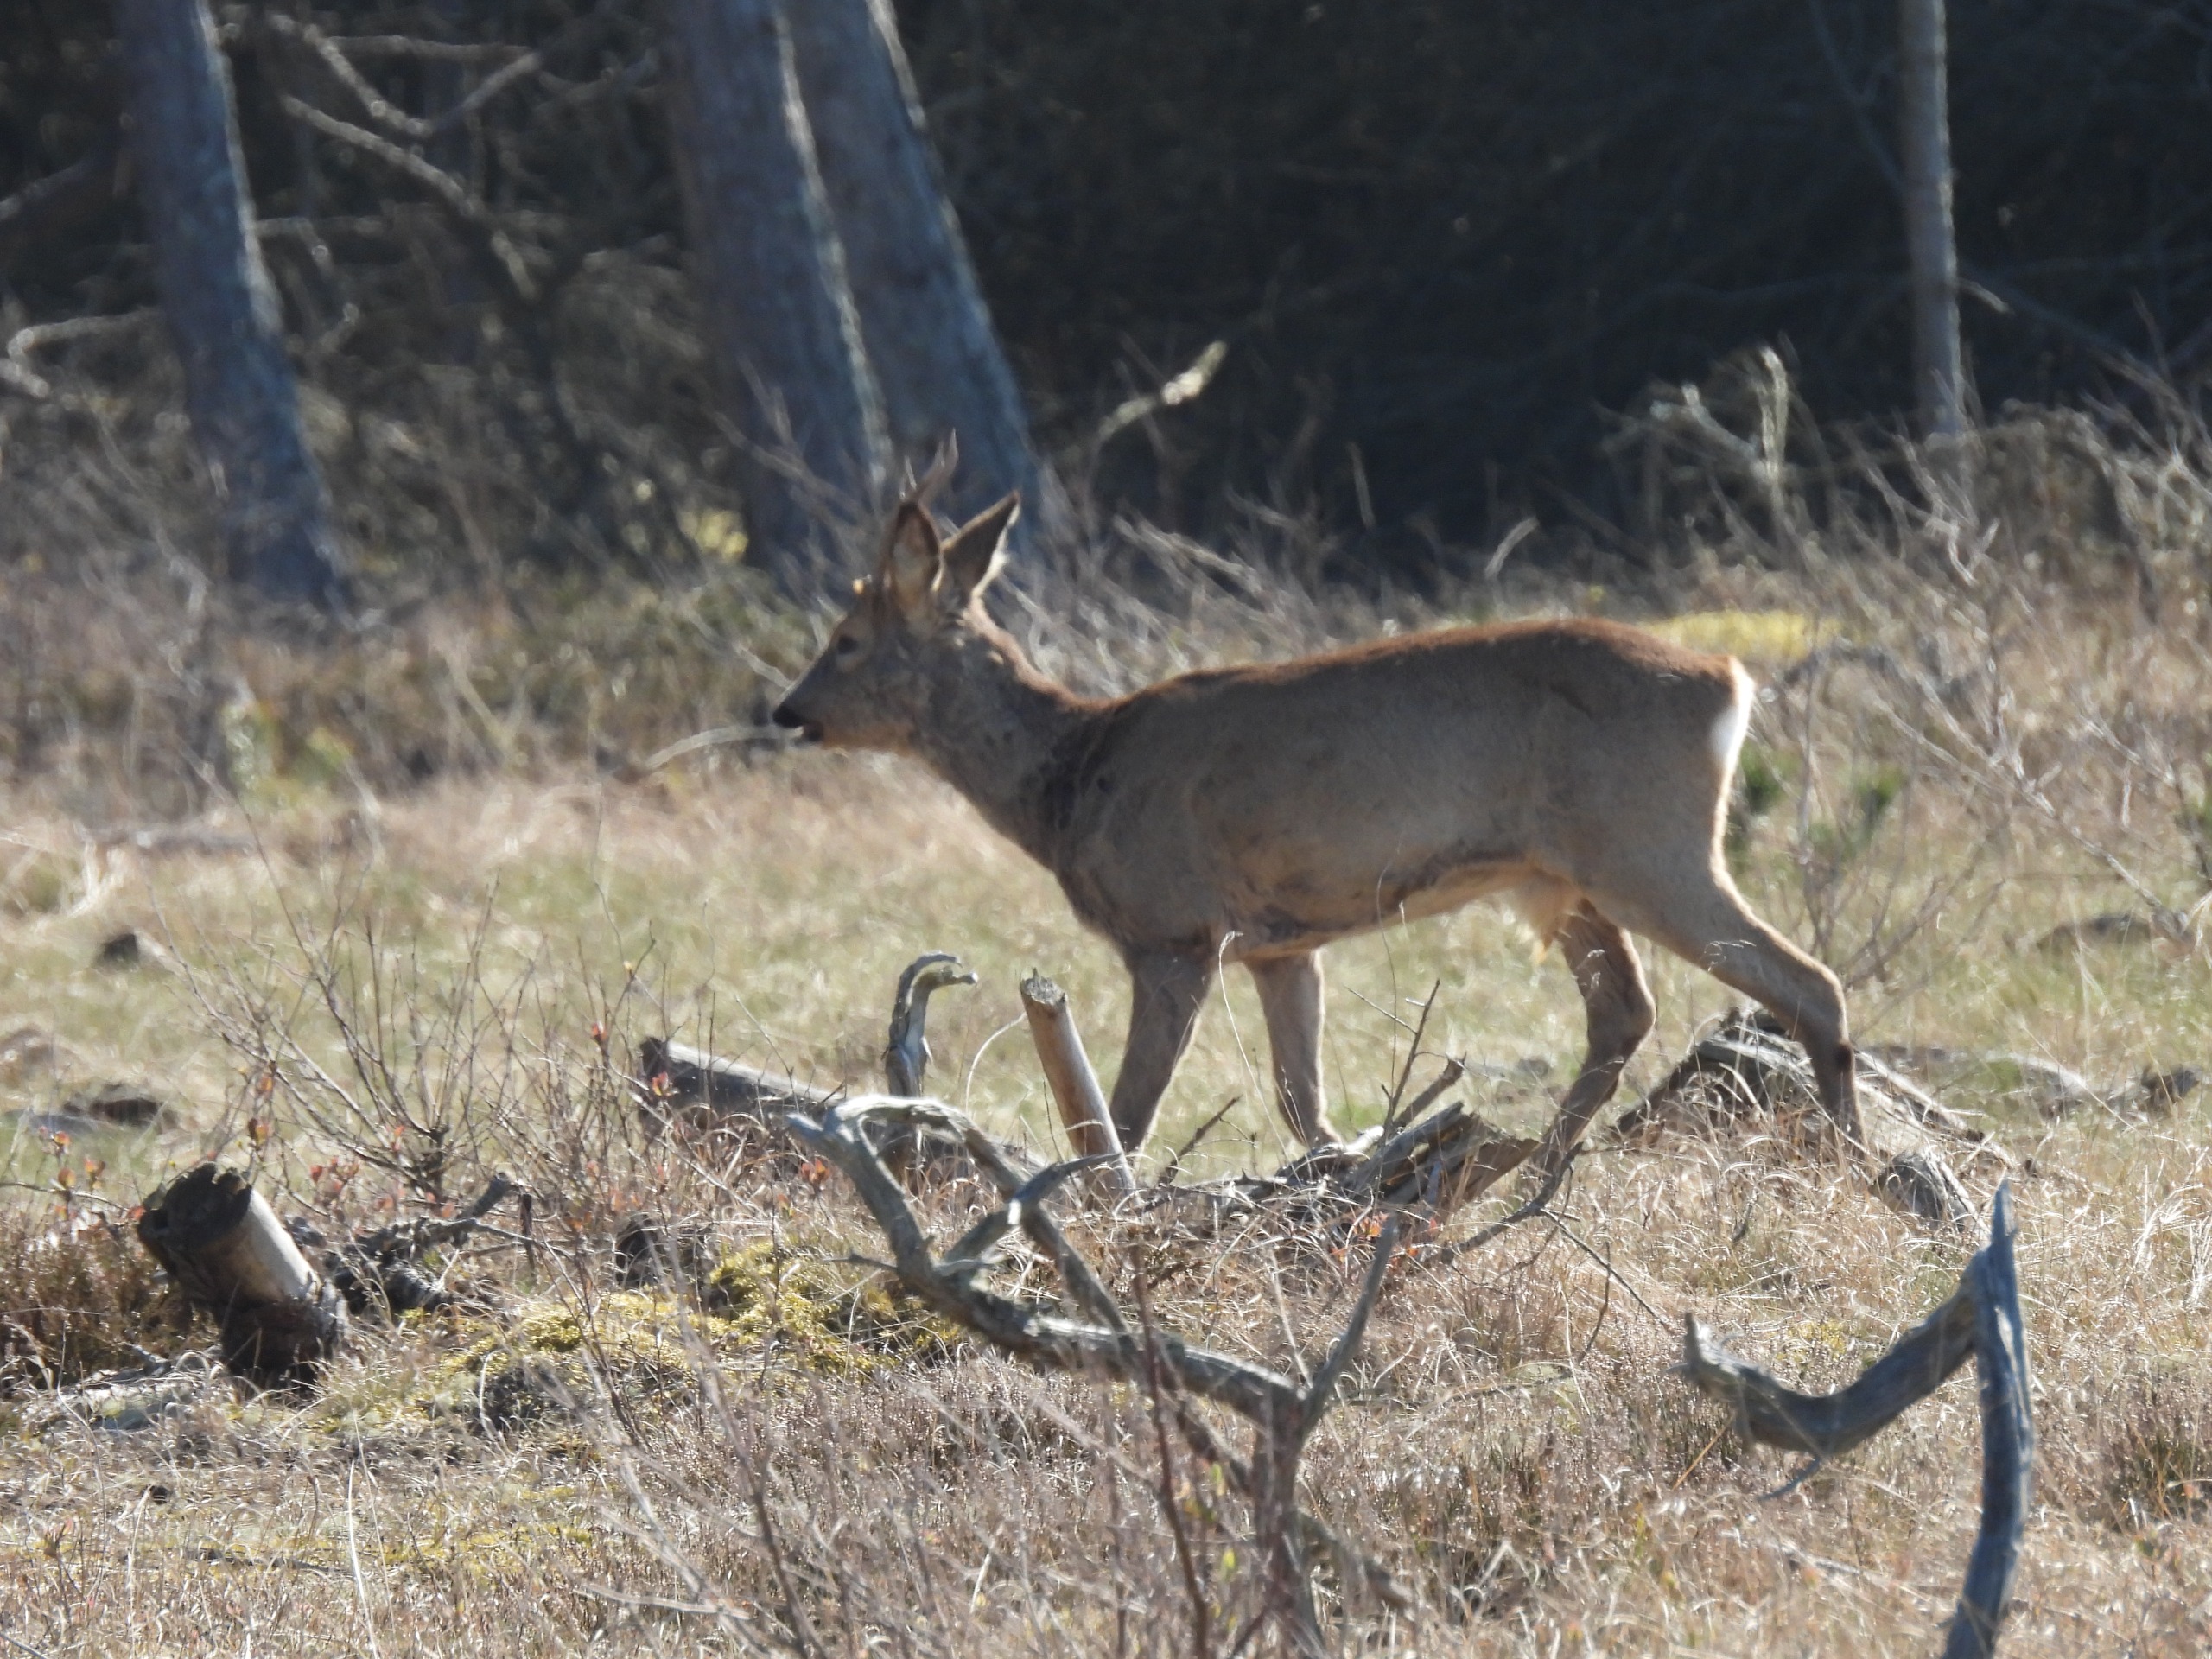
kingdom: Animalia
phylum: Chordata
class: Mammalia
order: Artiodactyla
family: Cervidae
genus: Capreolus
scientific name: Capreolus capreolus
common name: Rådyr
